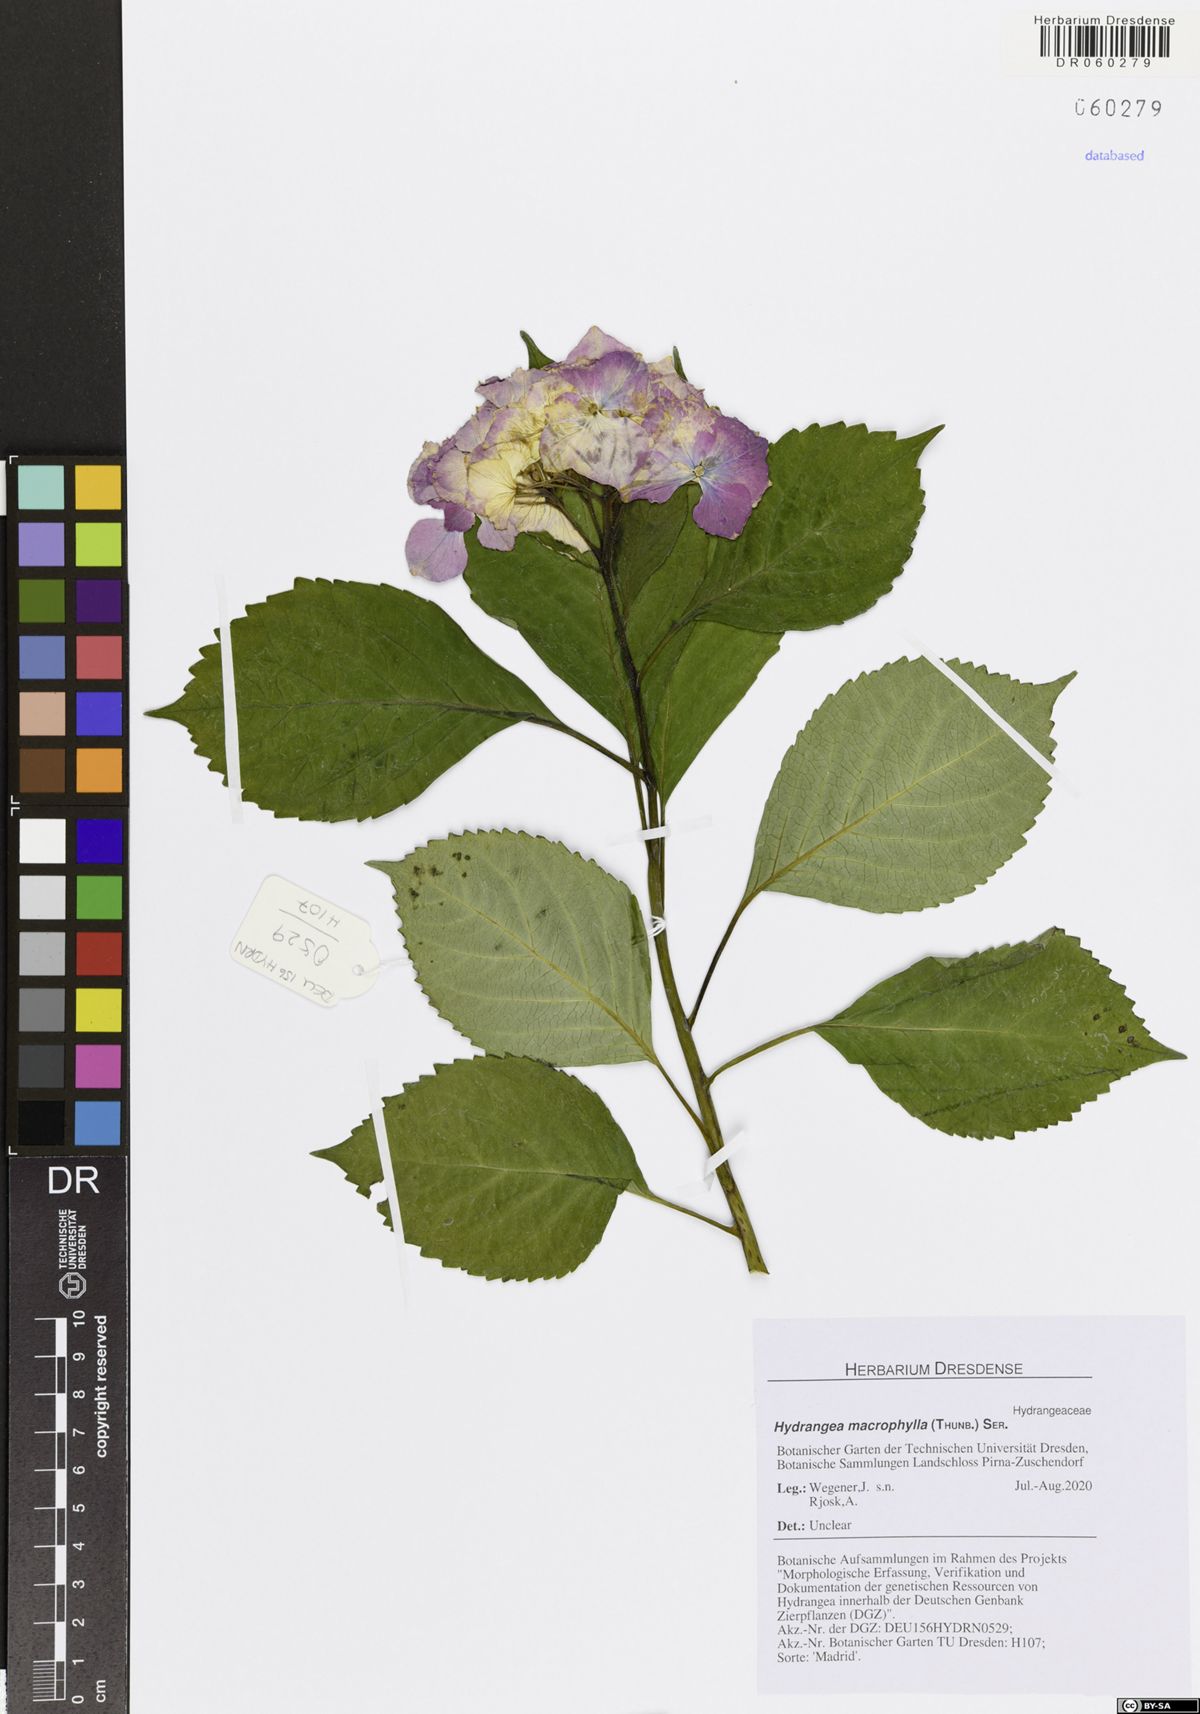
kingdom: Plantae
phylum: Tracheophyta
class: Magnoliopsida
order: Cornales
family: Hydrangeaceae
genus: Hydrangea
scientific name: Hydrangea macrophylla
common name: Hydrangea
